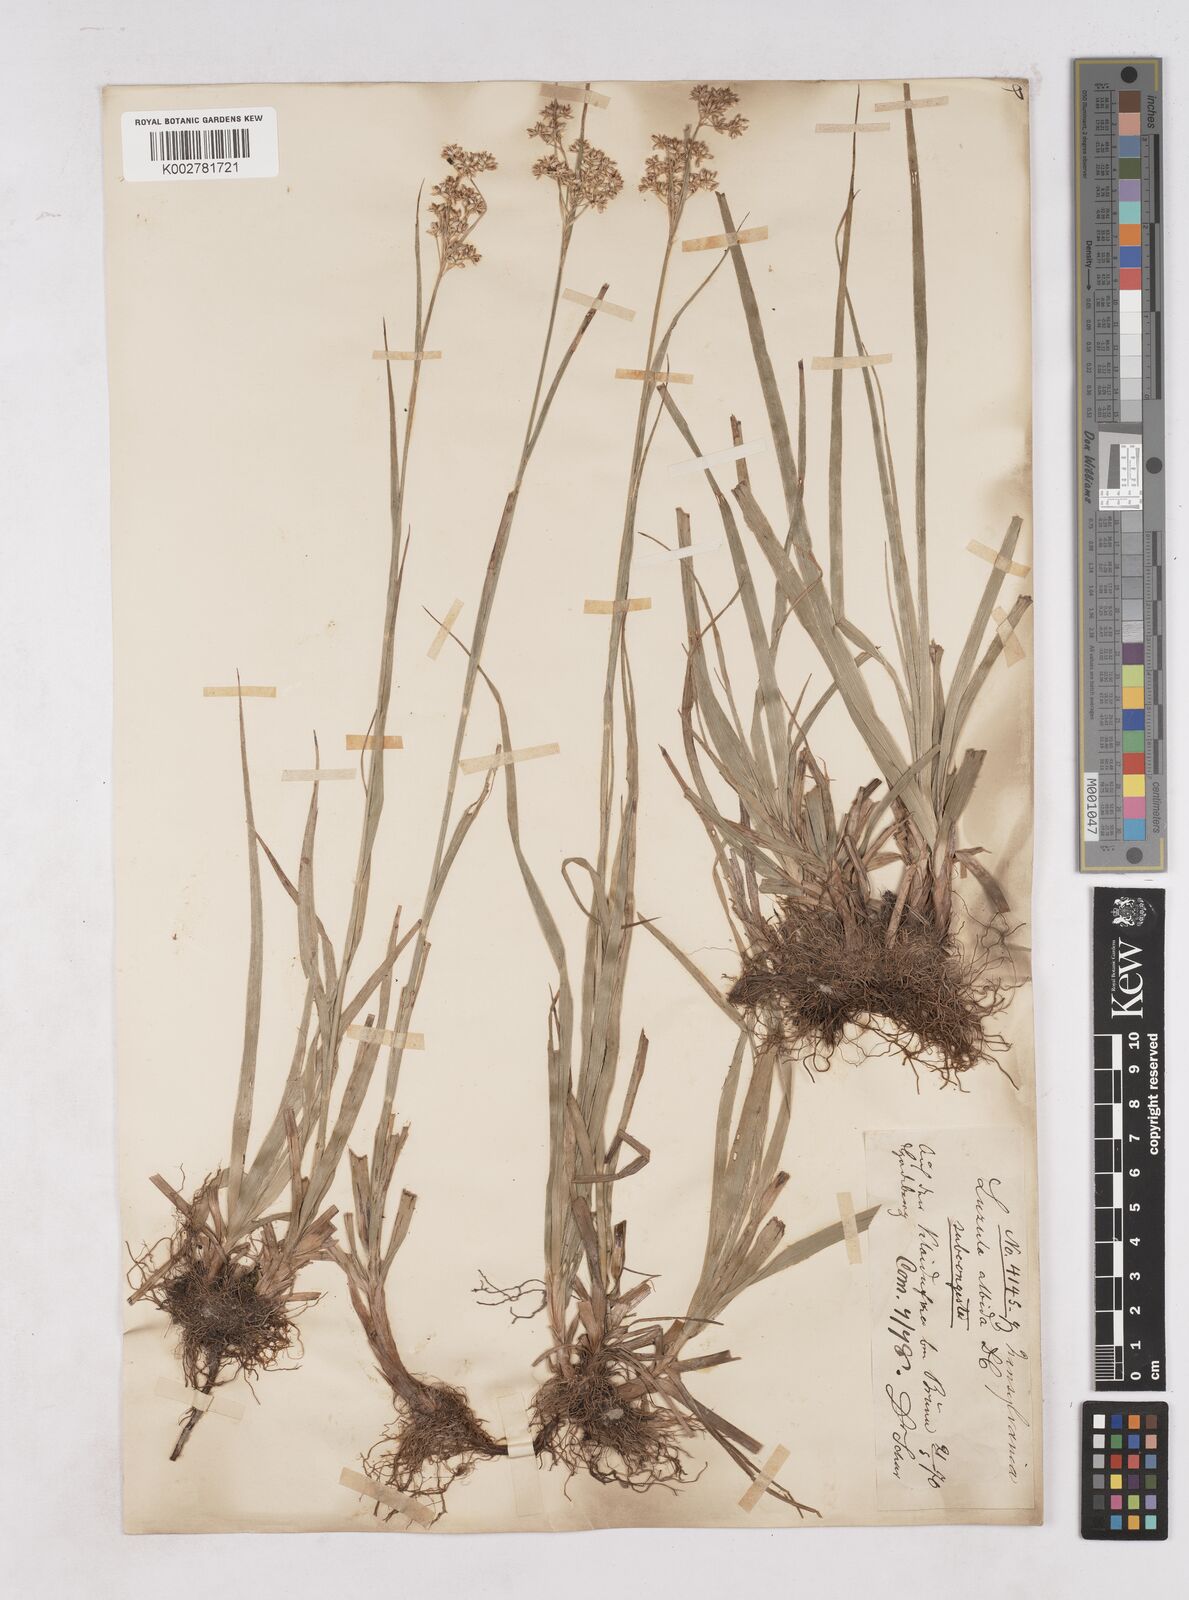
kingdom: Plantae
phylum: Tracheophyta
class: Liliopsida
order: Poales
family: Juncaceae
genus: Luzula
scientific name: Luzula luzuloides
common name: White wood-rush
